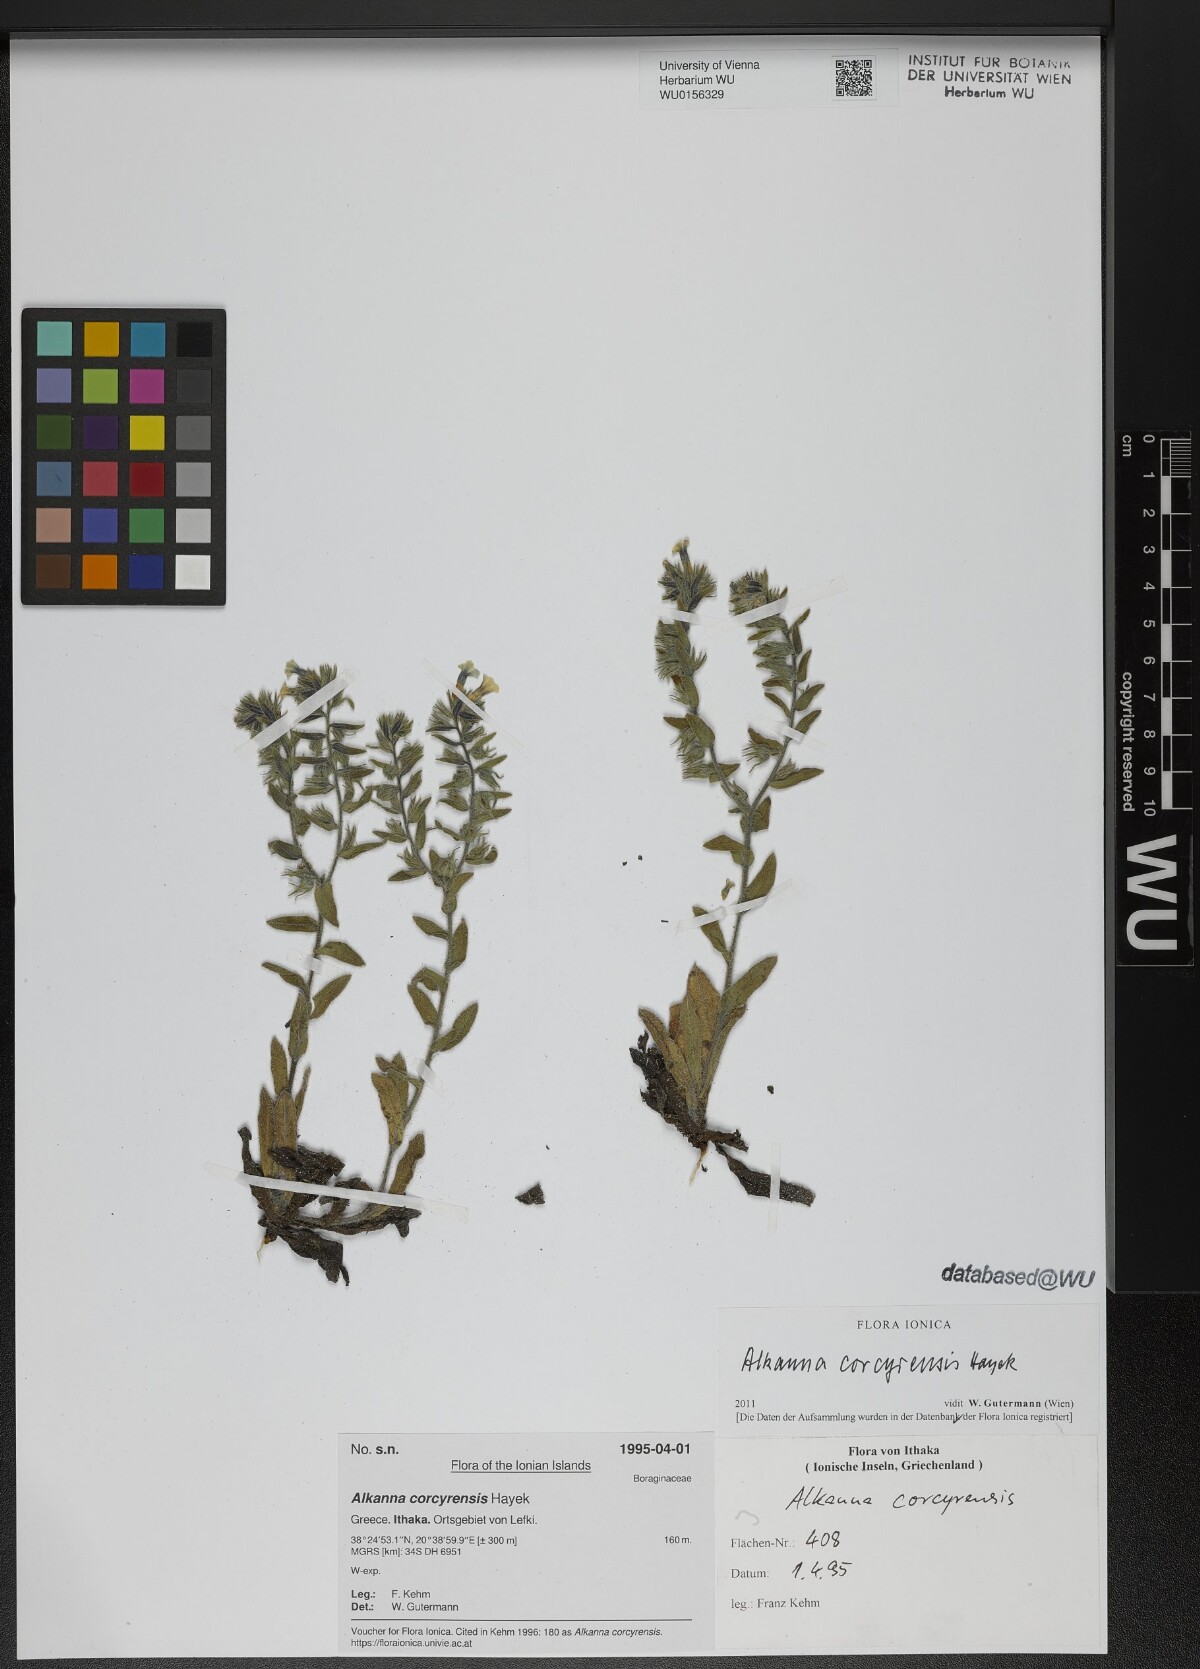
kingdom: Plantae
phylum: Tracheophyta
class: Magnoliopsida
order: Boraginales
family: Boraginaceae
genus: Alkanna
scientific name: Alkanna corcyrensis
